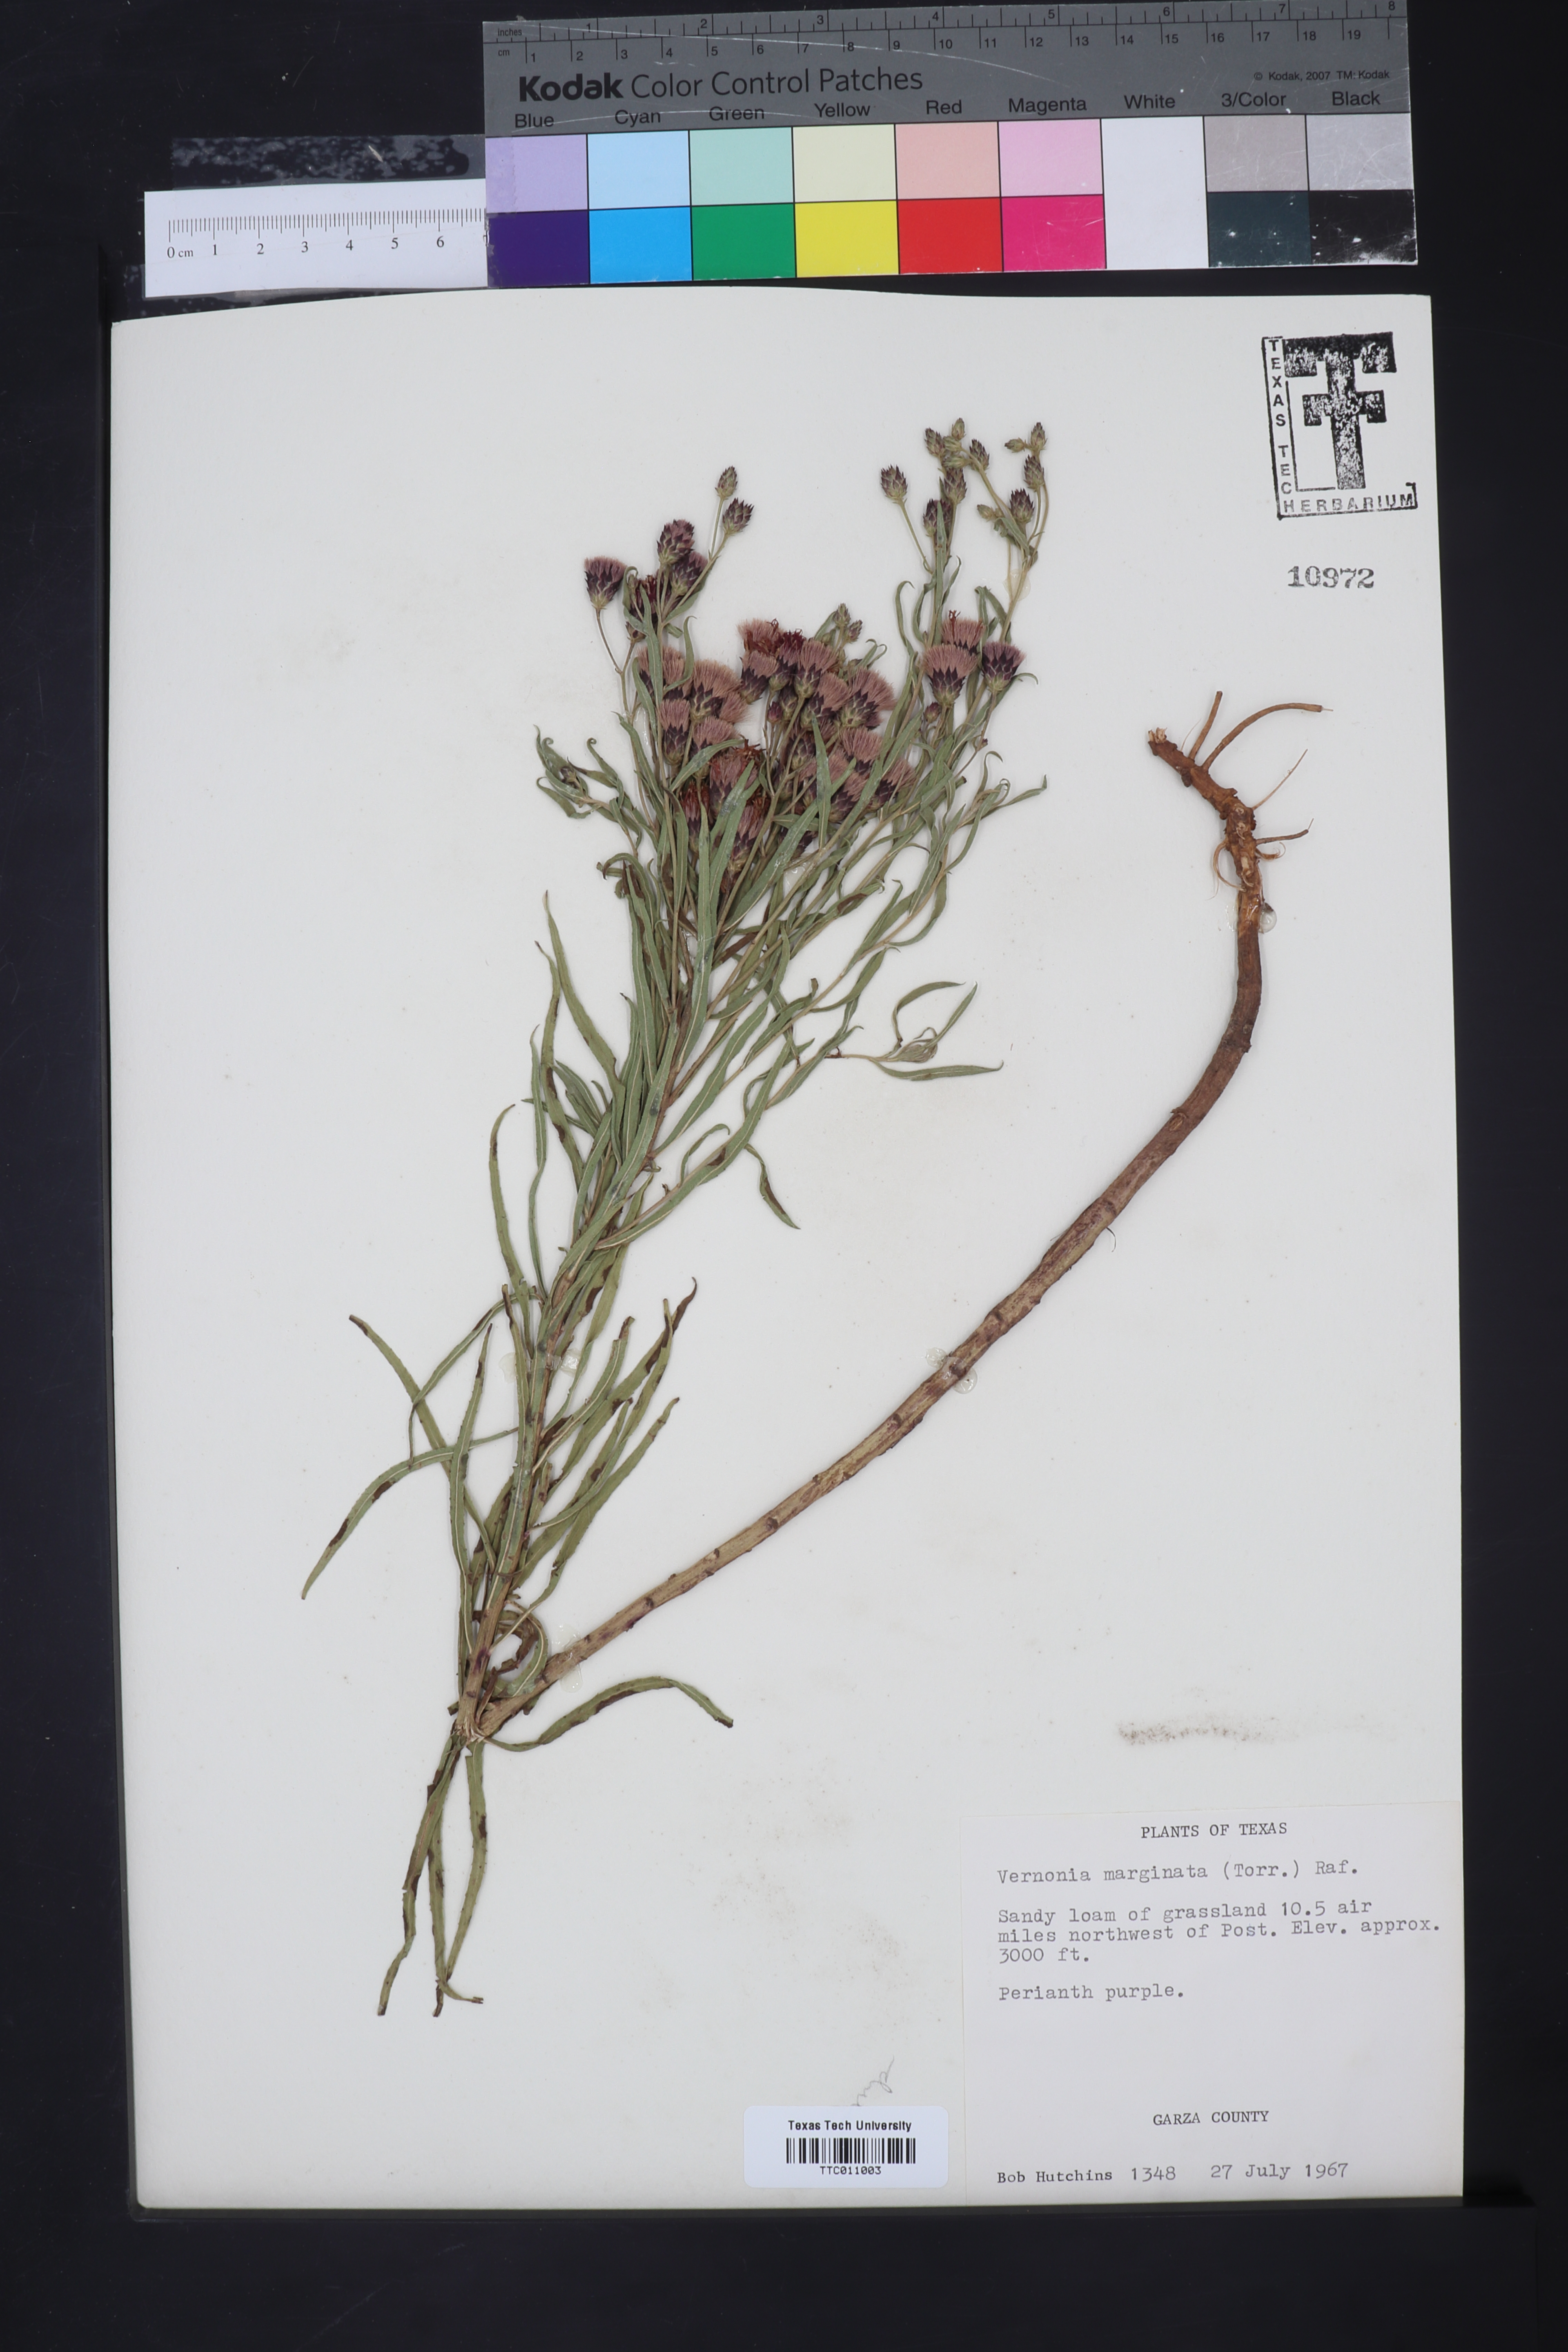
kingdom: Plantae
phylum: Tracheophyta
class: Magnoliopsida
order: Asterales
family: Asteraceae
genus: Vernonia
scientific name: Vernonia marginata
